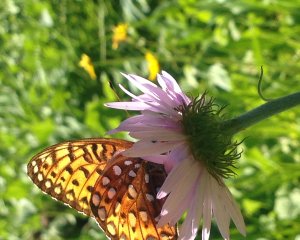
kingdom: Animalia
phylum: Arthropoda
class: Insecta
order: Lepidoptera
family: Nymphalidae
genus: Speyeria
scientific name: Speyeria atlantis
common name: Northwestern Fritillary
